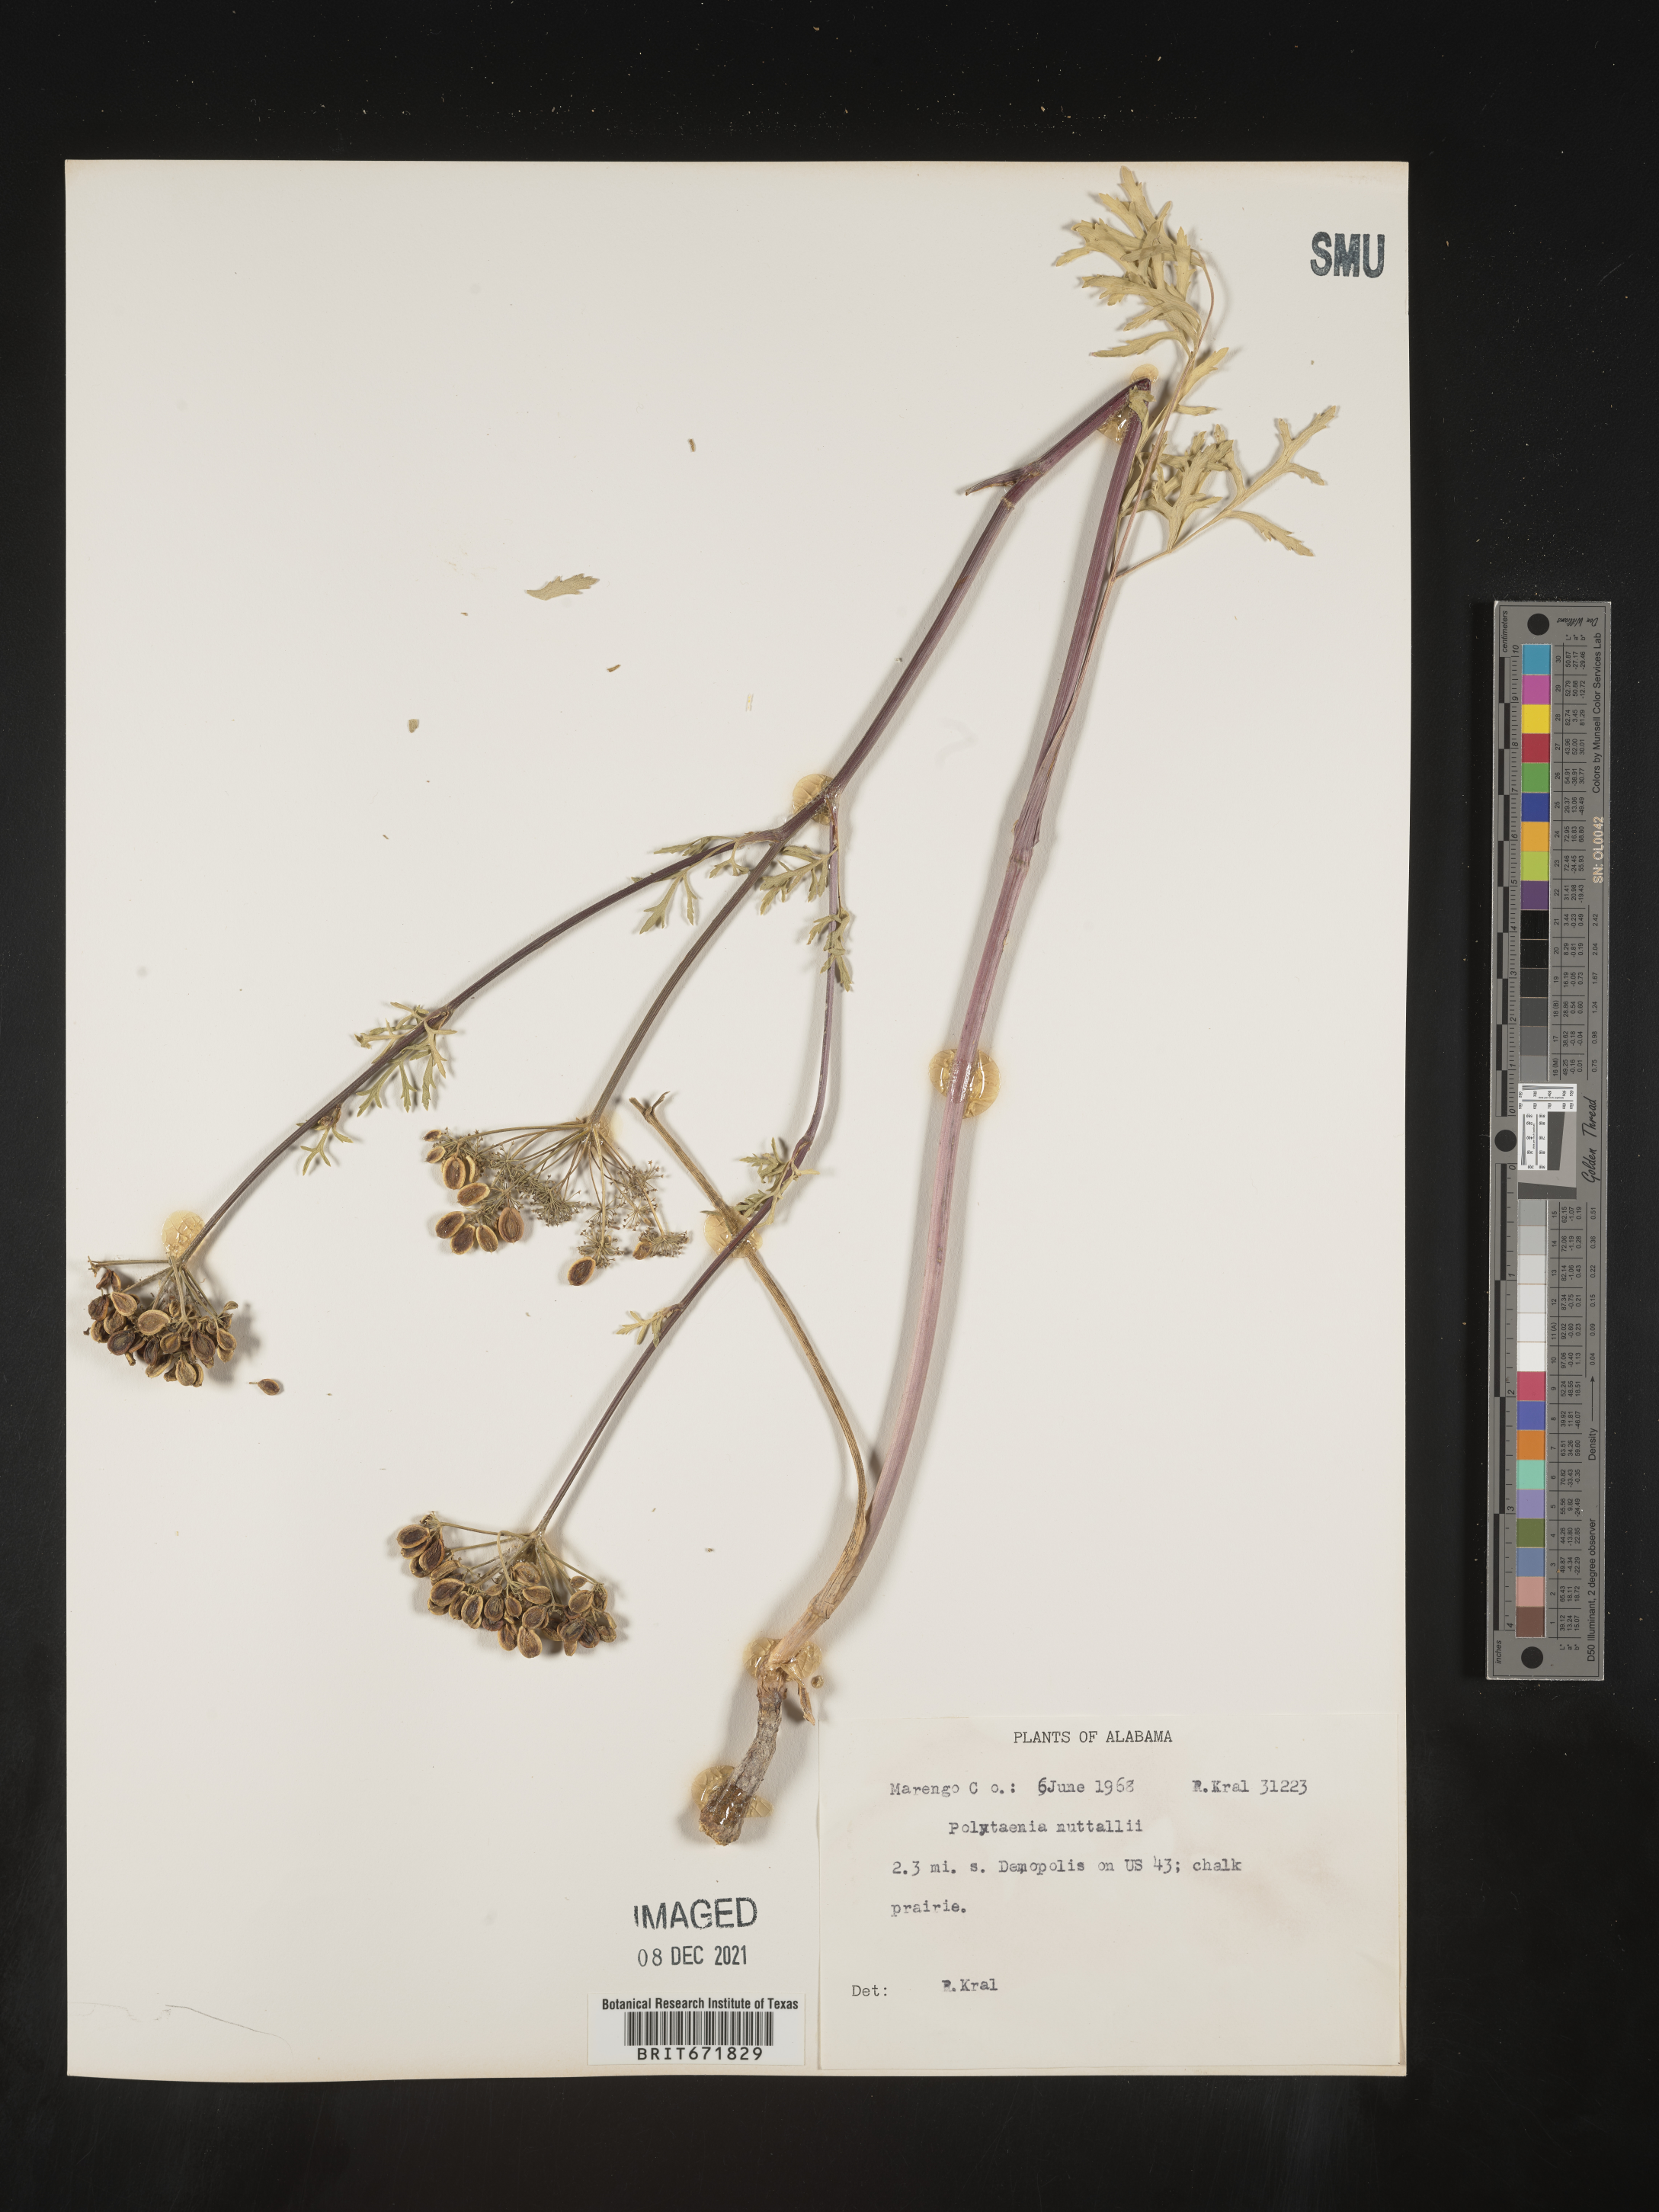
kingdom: Plantae
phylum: Tracheophyta
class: Magnoliopsida
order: Apiales
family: Apiaceae
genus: Polytaenia
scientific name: Polytaenia nuttallii
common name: Prairie-parsley
